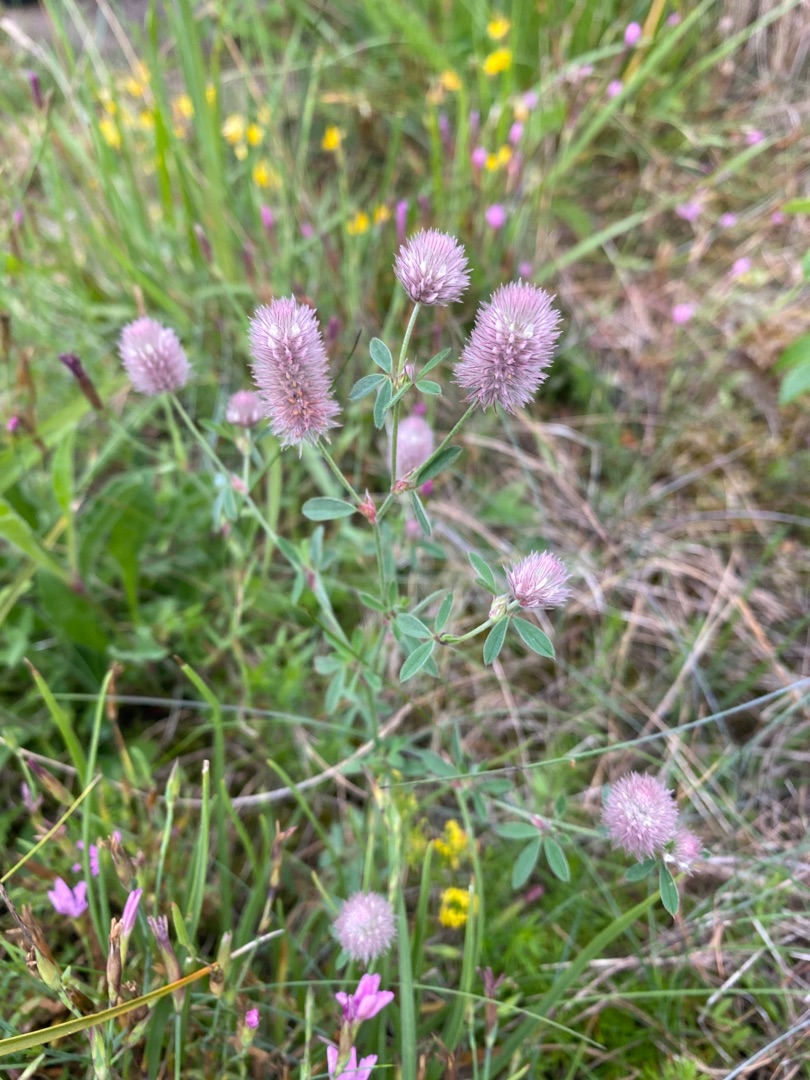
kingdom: Plantae
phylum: Tracheophyta
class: Magnoliopsida
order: Fabales
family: Fabaceae
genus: Trifolium
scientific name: Trifolium arvense
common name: Hare-kløver
